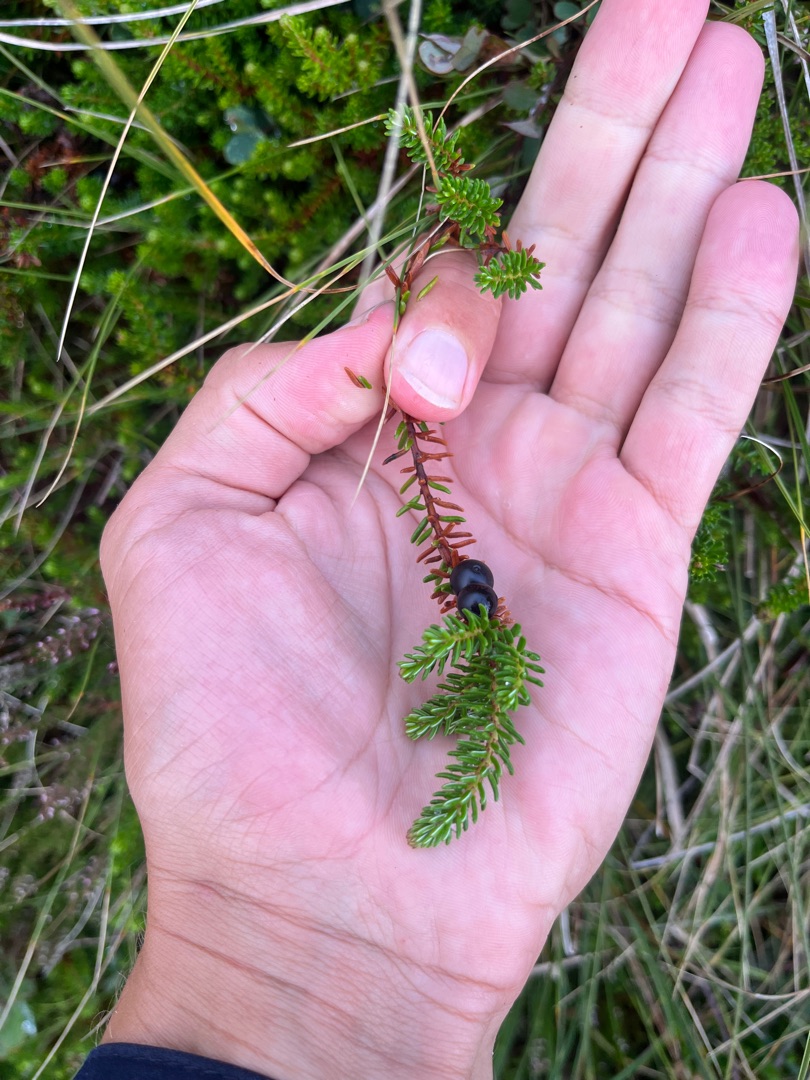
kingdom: Plantae
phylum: Tracheophyta
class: Magnoliopsida
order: Ericales
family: Ericaceae
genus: Empetrum
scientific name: Empetrum nigrum
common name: Revling
